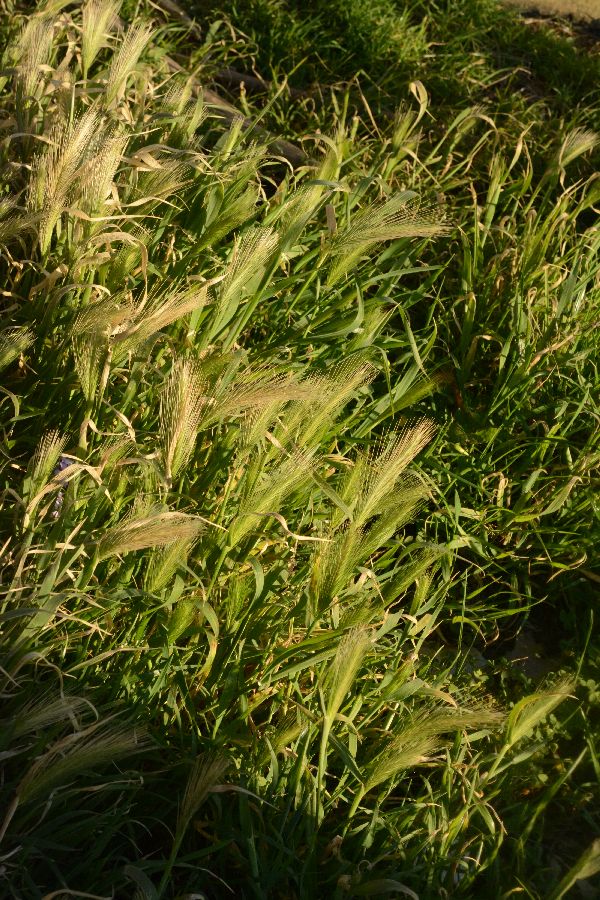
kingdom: Plantae
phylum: Tracheophyta
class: Liliopsida
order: Poales
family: Poaceae
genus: Hordeum
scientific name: Hordeum marinum
